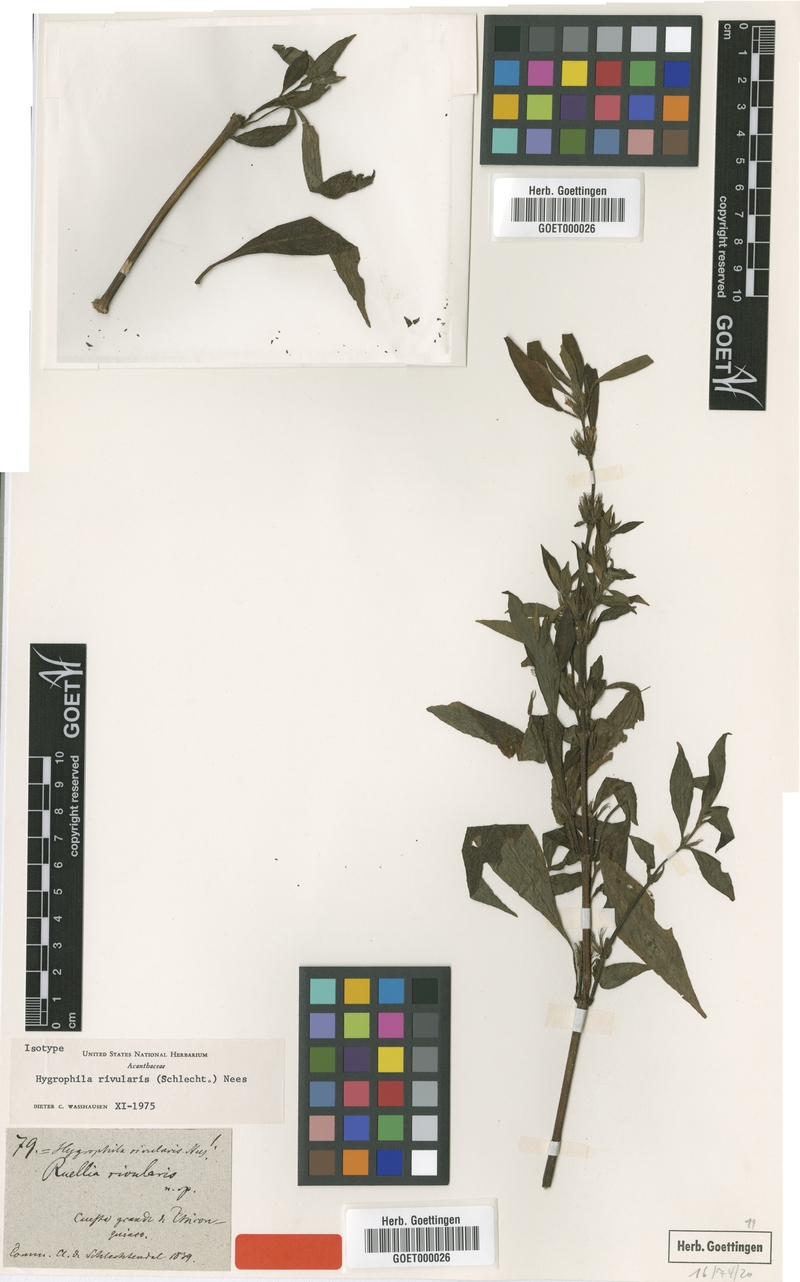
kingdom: Plantae
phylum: Tracheophyta
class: Magnoliopsida
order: Lamiales
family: Acanthaceae
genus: Hygrophila
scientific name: Hygrophila costata
